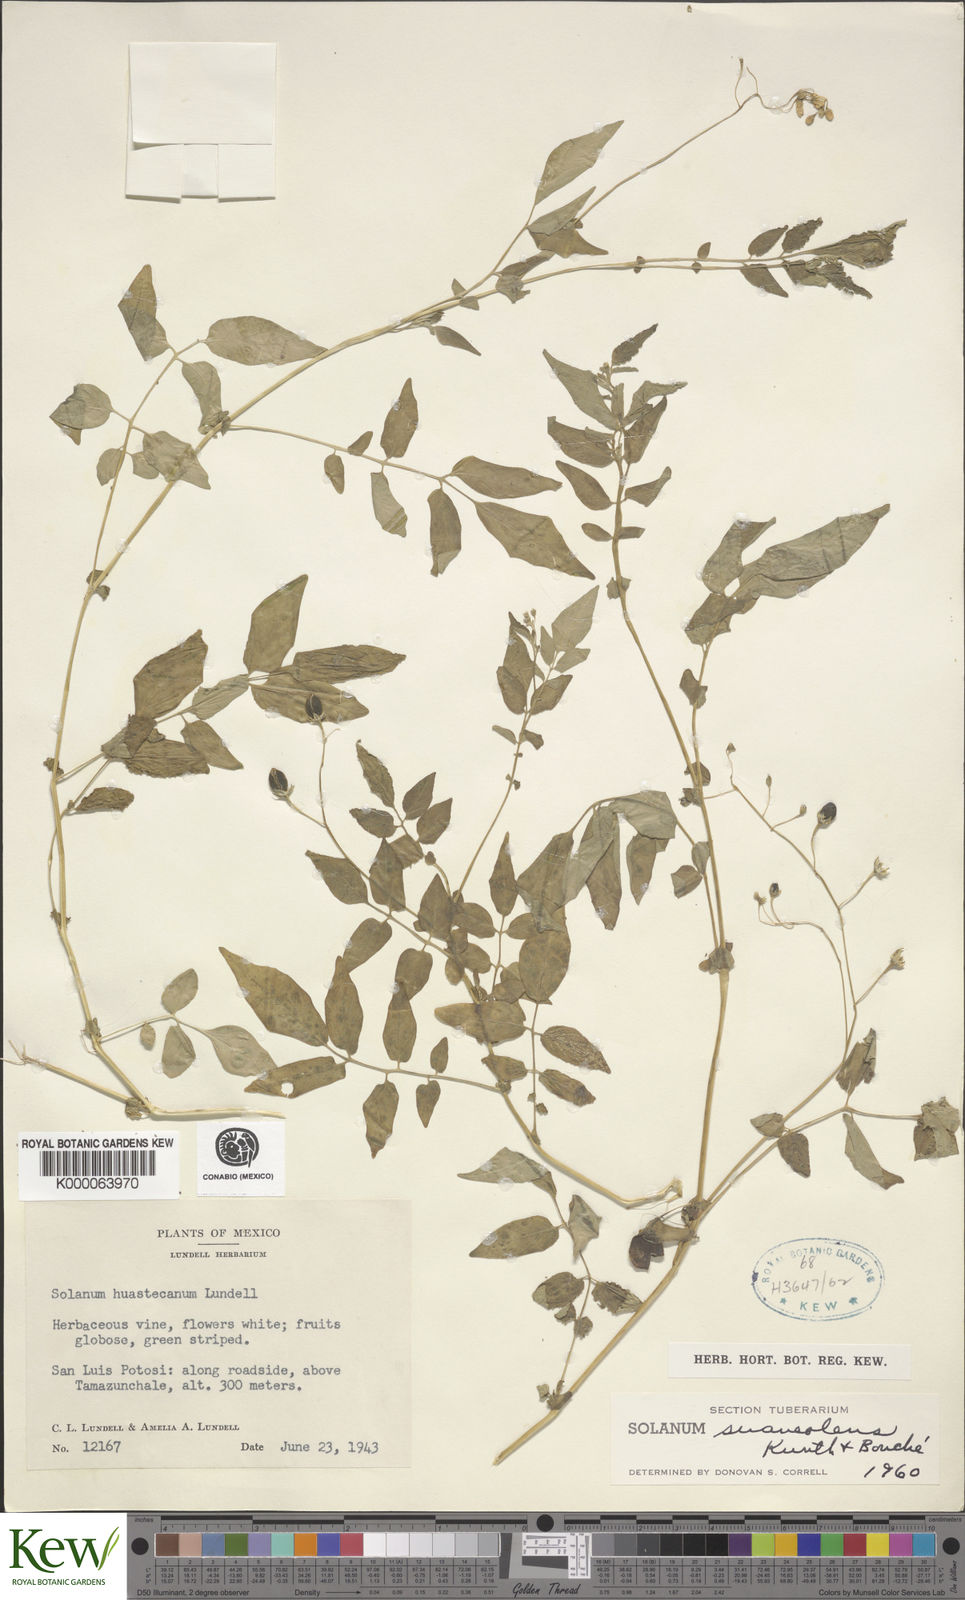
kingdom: Plantae
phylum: Tracheophyta
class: Magnoliopsida
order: Solanales
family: Solanaceae
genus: Solanum
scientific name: Solanum
